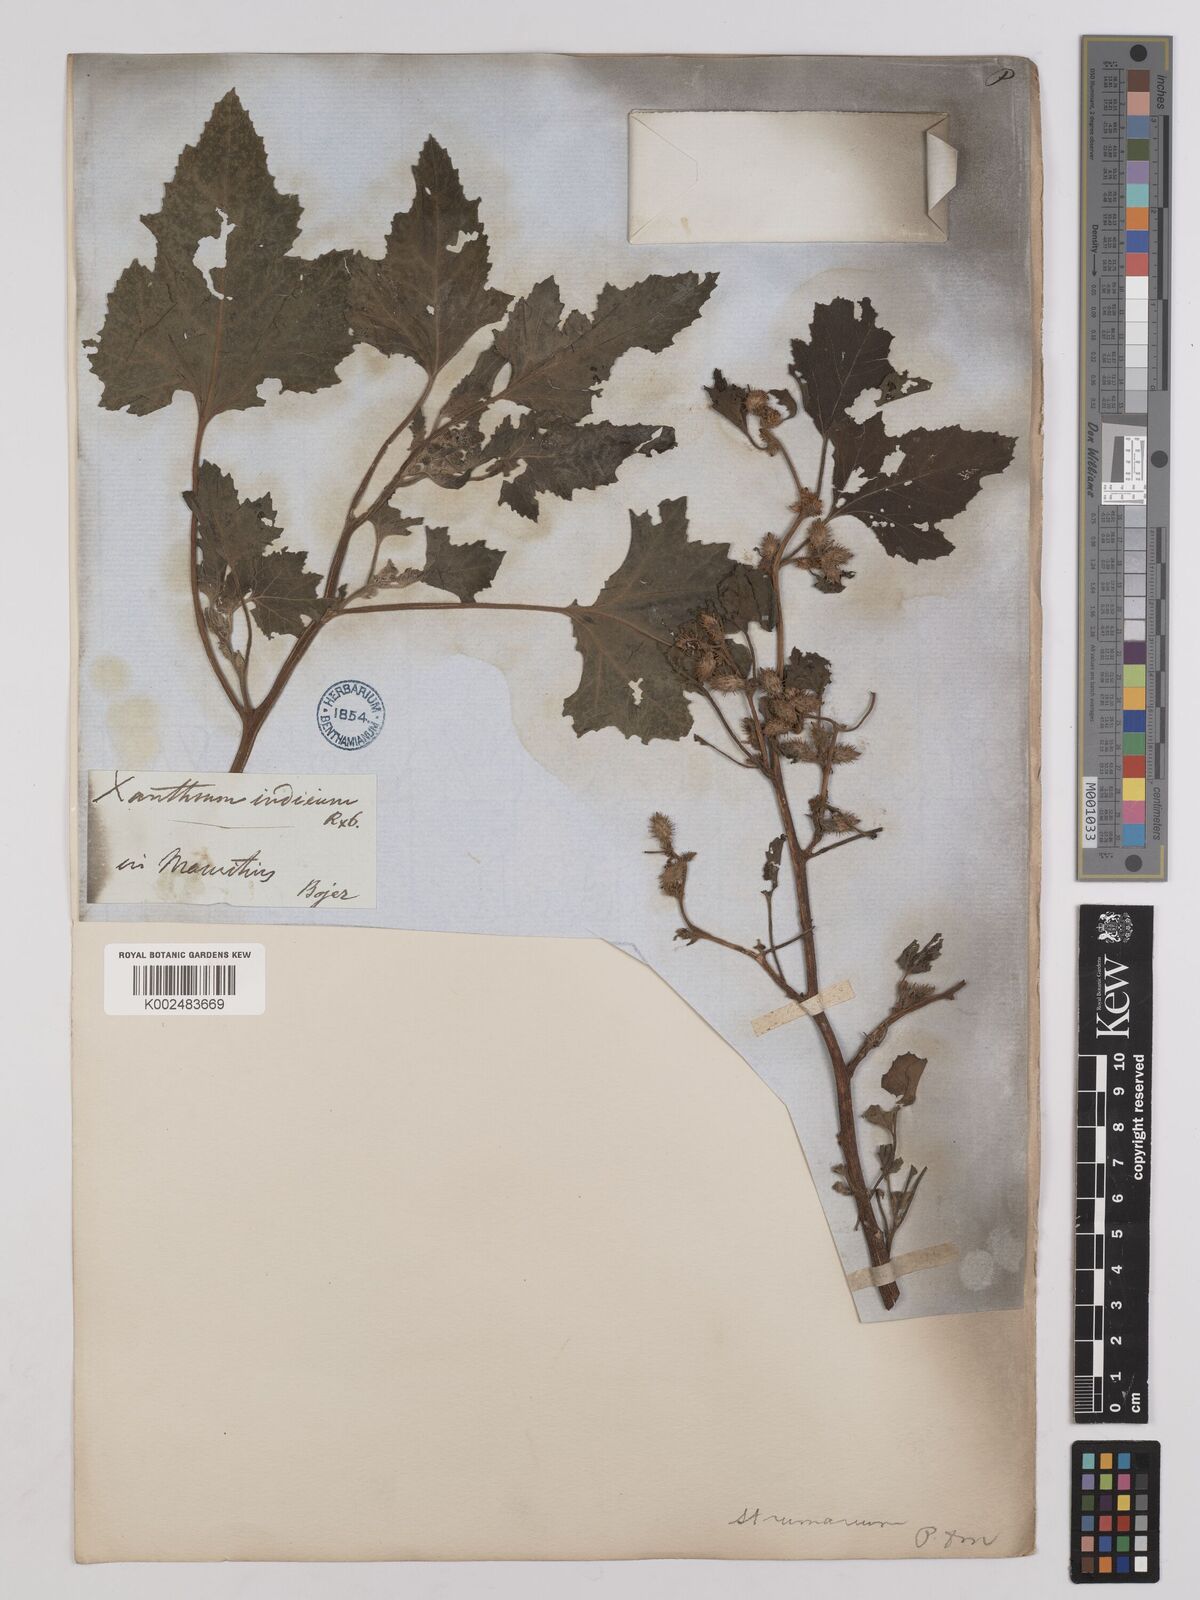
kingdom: Plantae
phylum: Tracheophyta
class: Magnoliopsida
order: Asterales
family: Asteraceae
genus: Xanthium
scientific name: Xanthium strumarium
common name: Rough cocklebur
